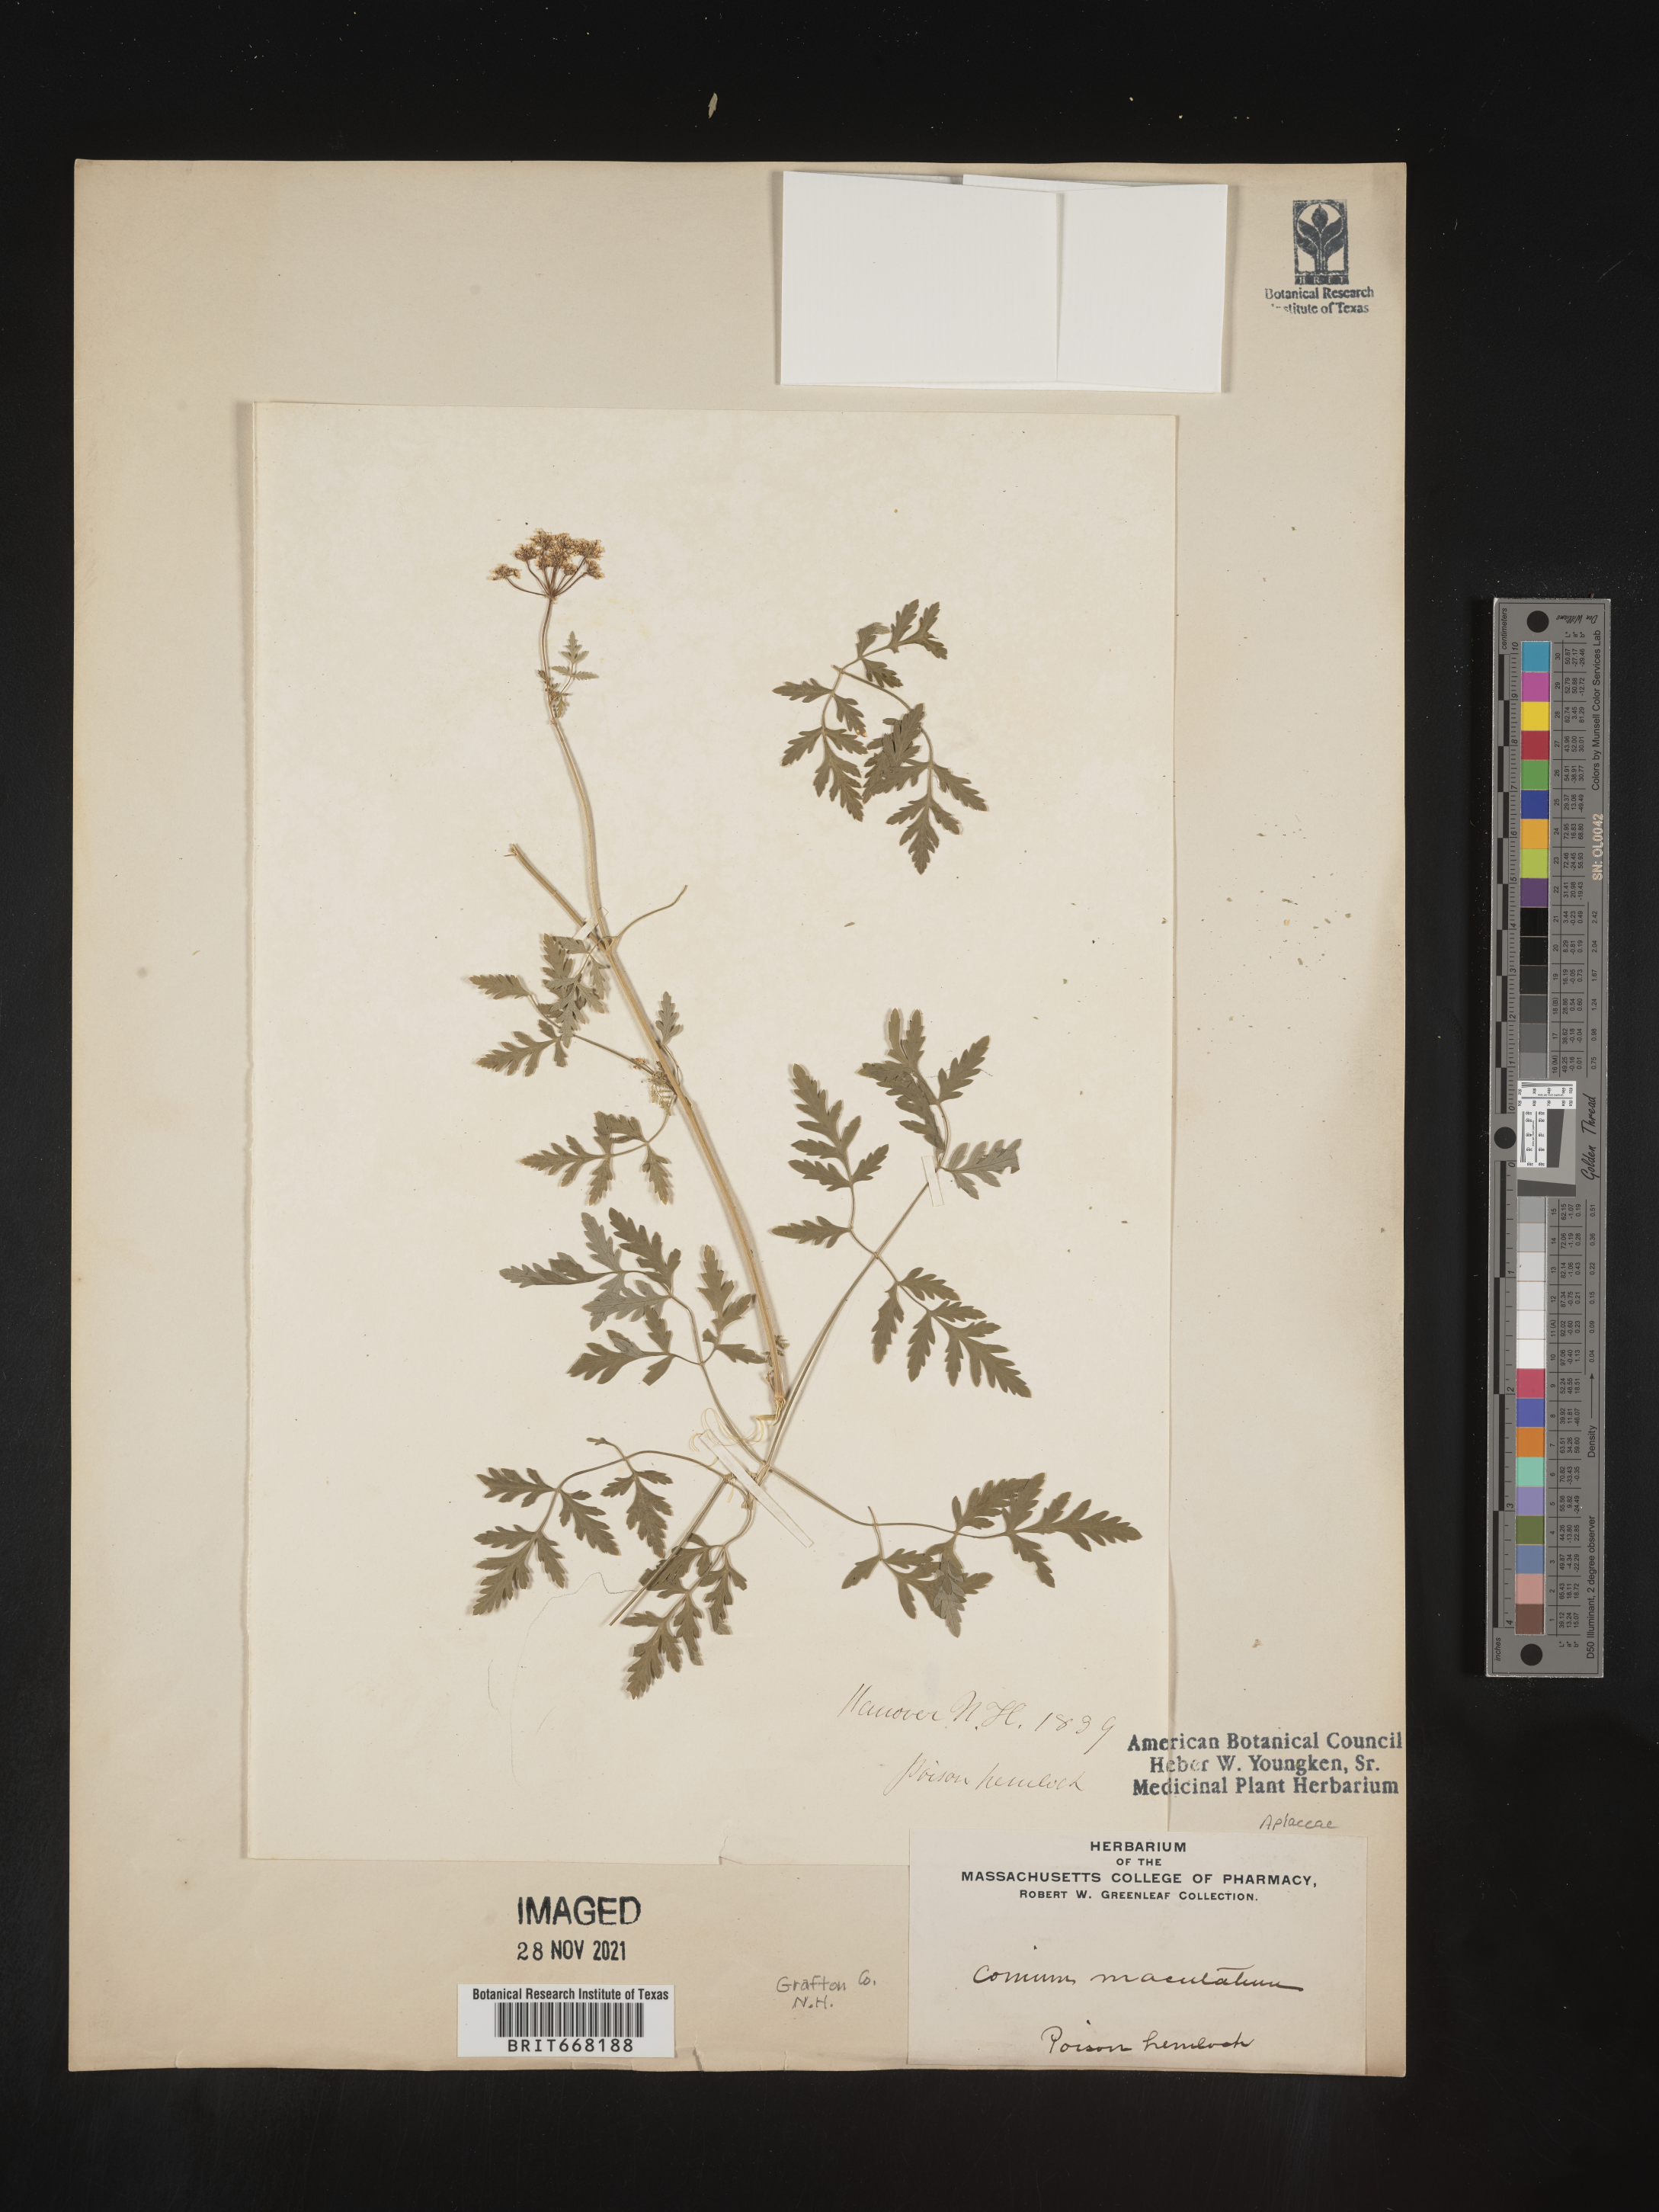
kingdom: Plantae
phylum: Tracheophyta
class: Magnoliopsida
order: Apiales
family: Apiaceae
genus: Conium
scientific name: Conium maculatum
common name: Hemlock
